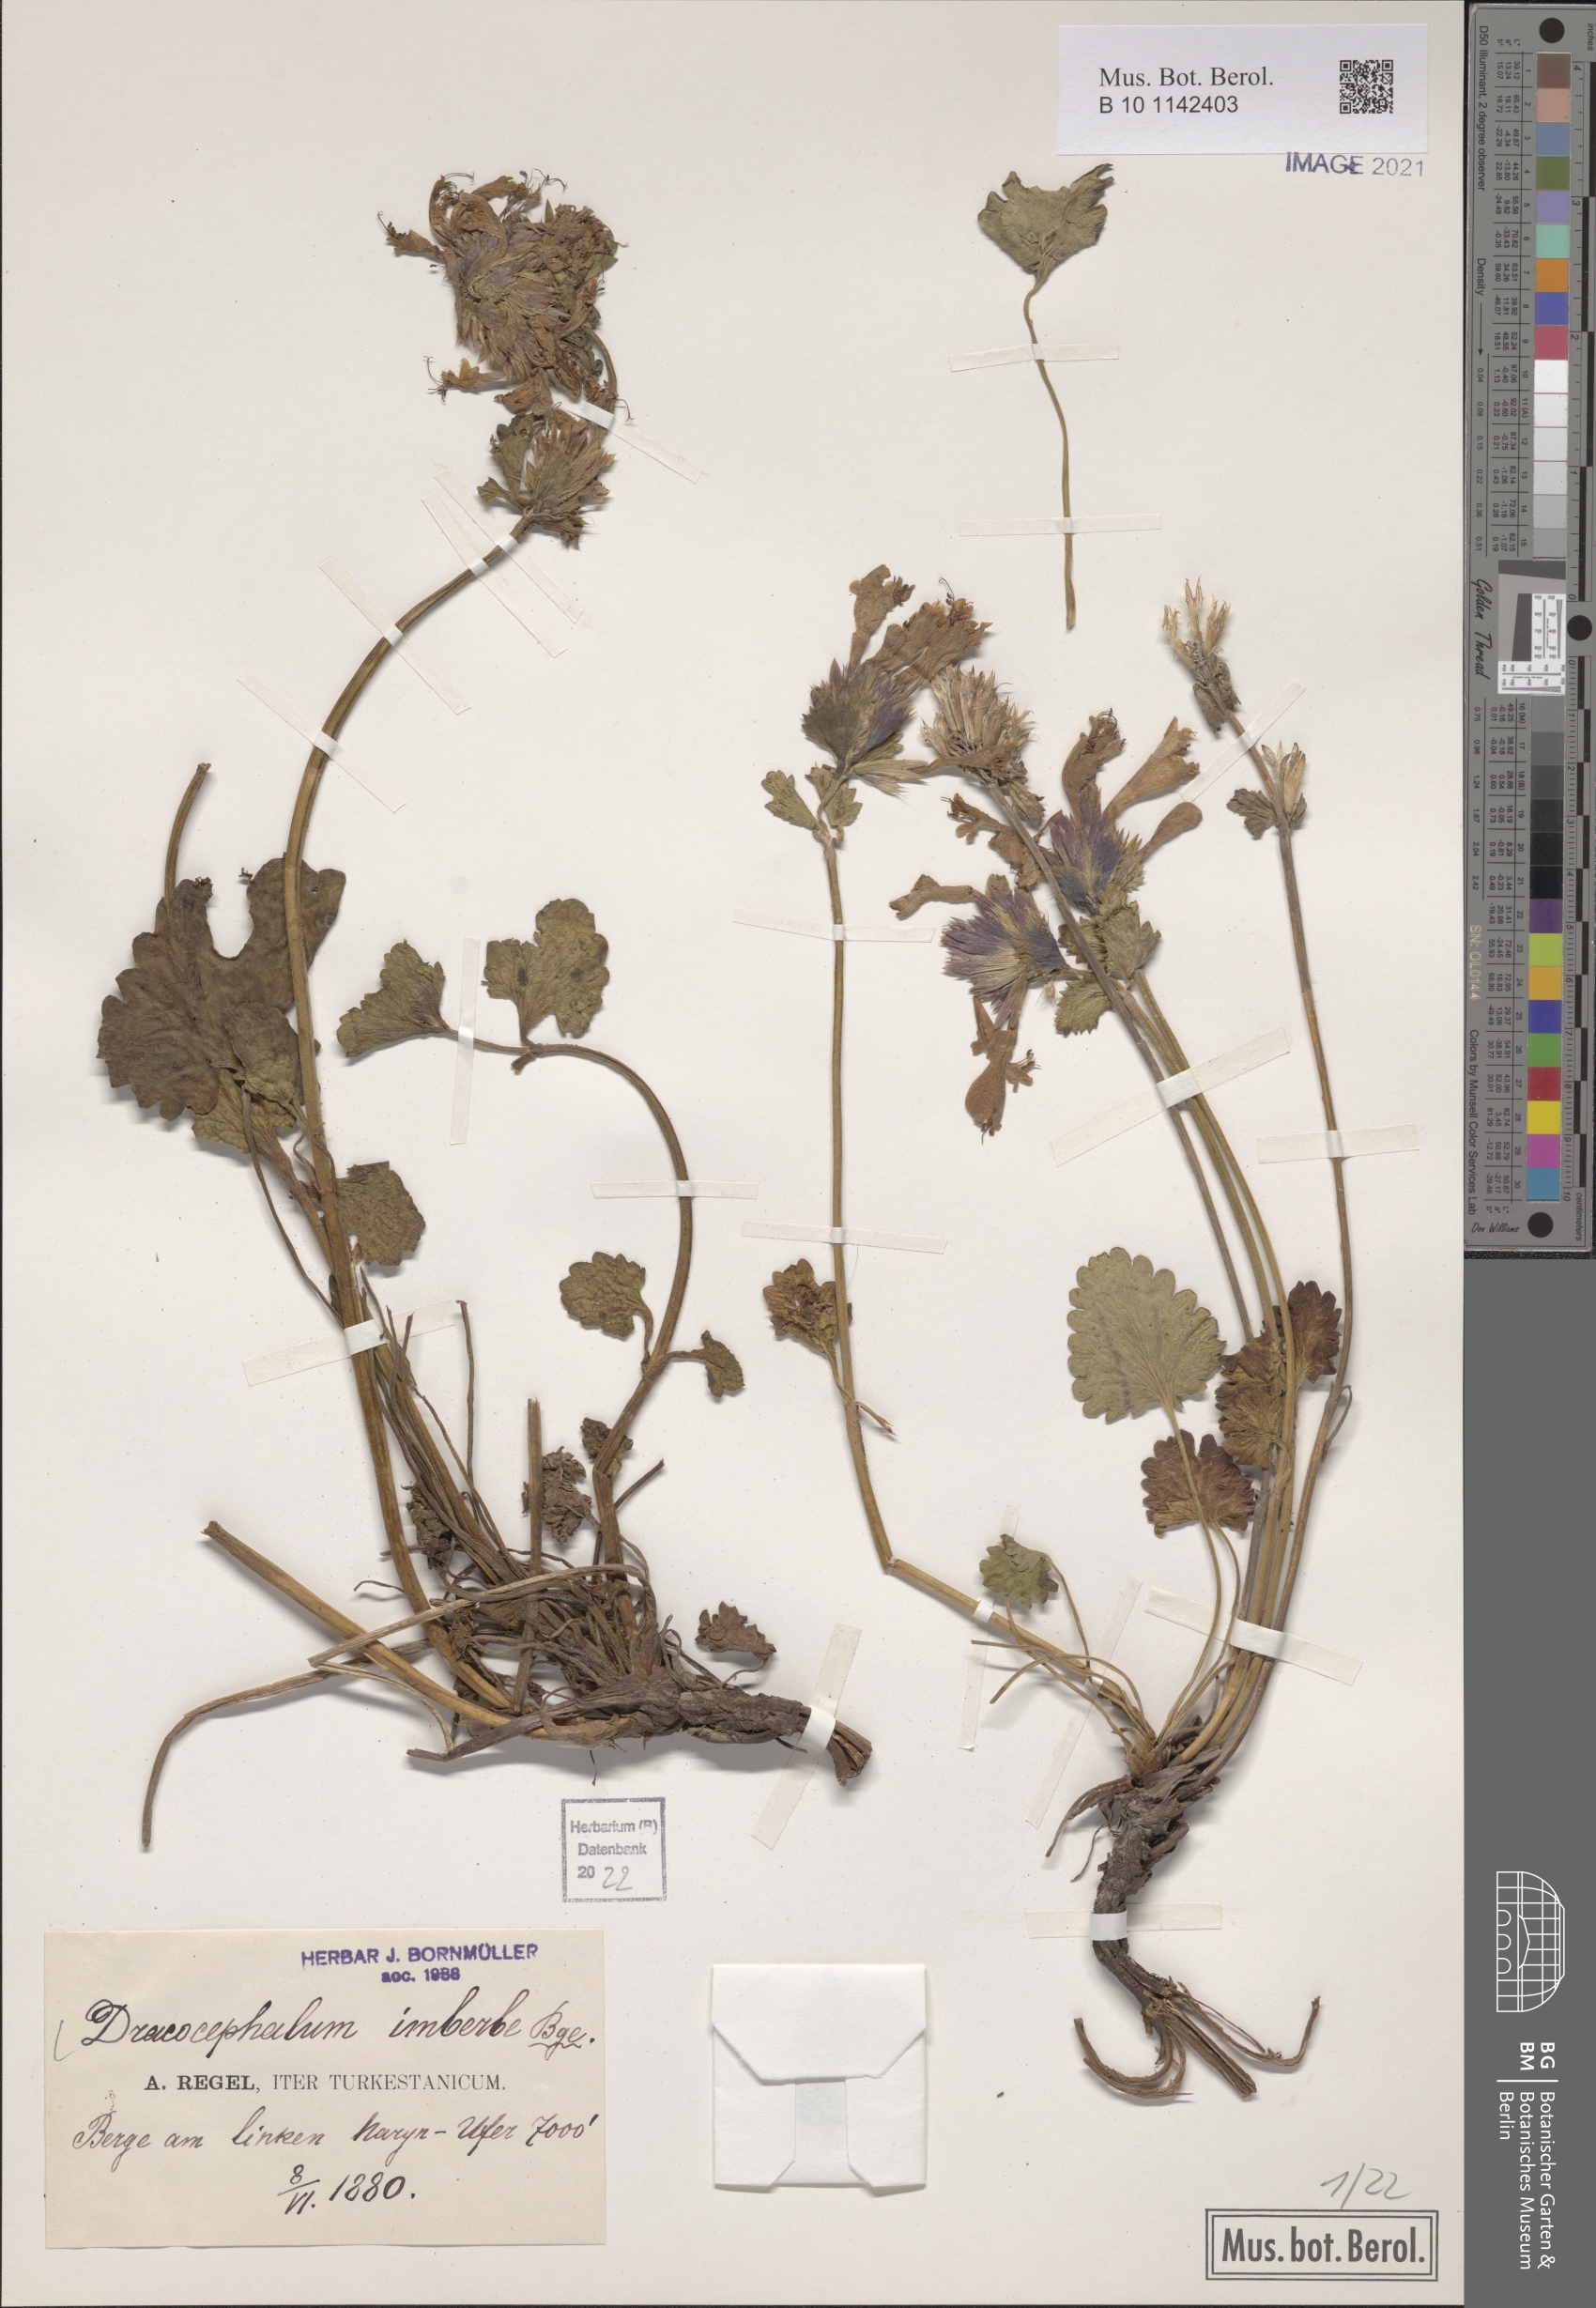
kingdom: Plantae
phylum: Tracheophyta
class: Magnoliopsida
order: Lamiales
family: Lamiaceae
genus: Dracocephalum
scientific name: Dracocephalum imberbe
